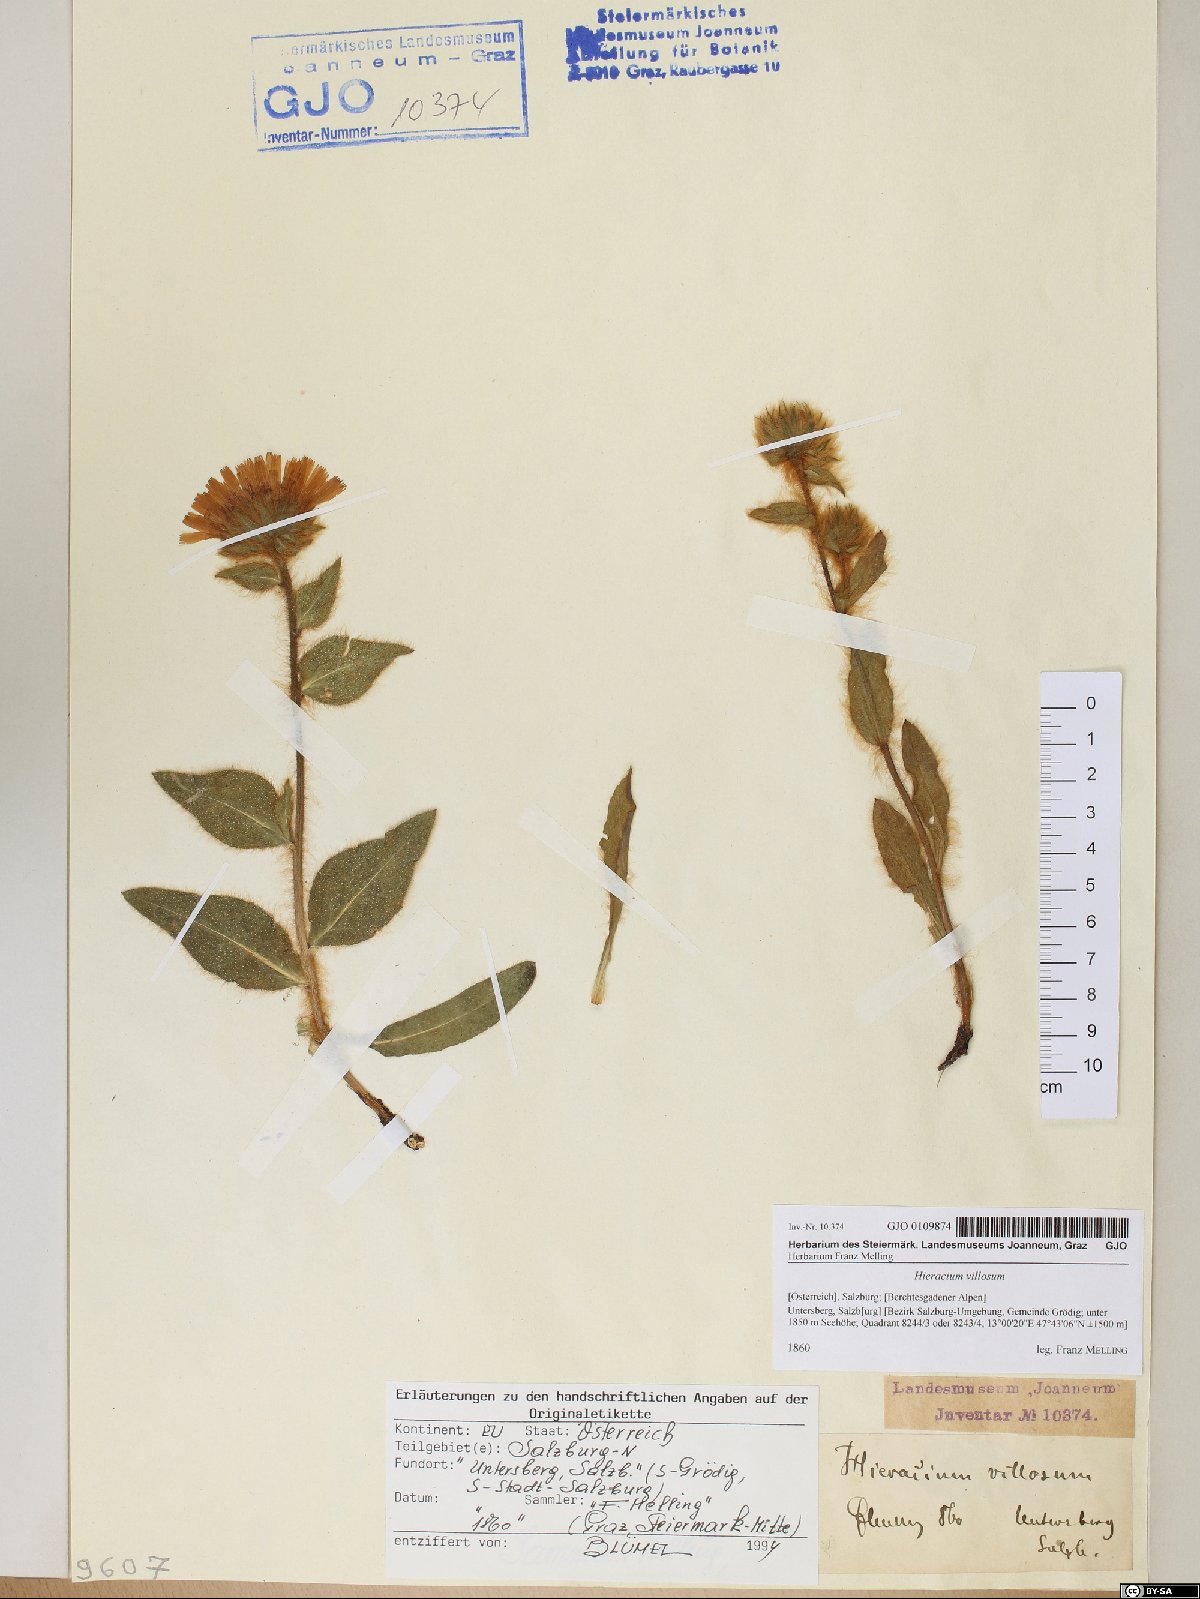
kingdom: Plantae
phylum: Tracheophyta
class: Magnoliopsida
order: Asterales
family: Asteraceae
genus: Hieracium
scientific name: Hieracium villosum
